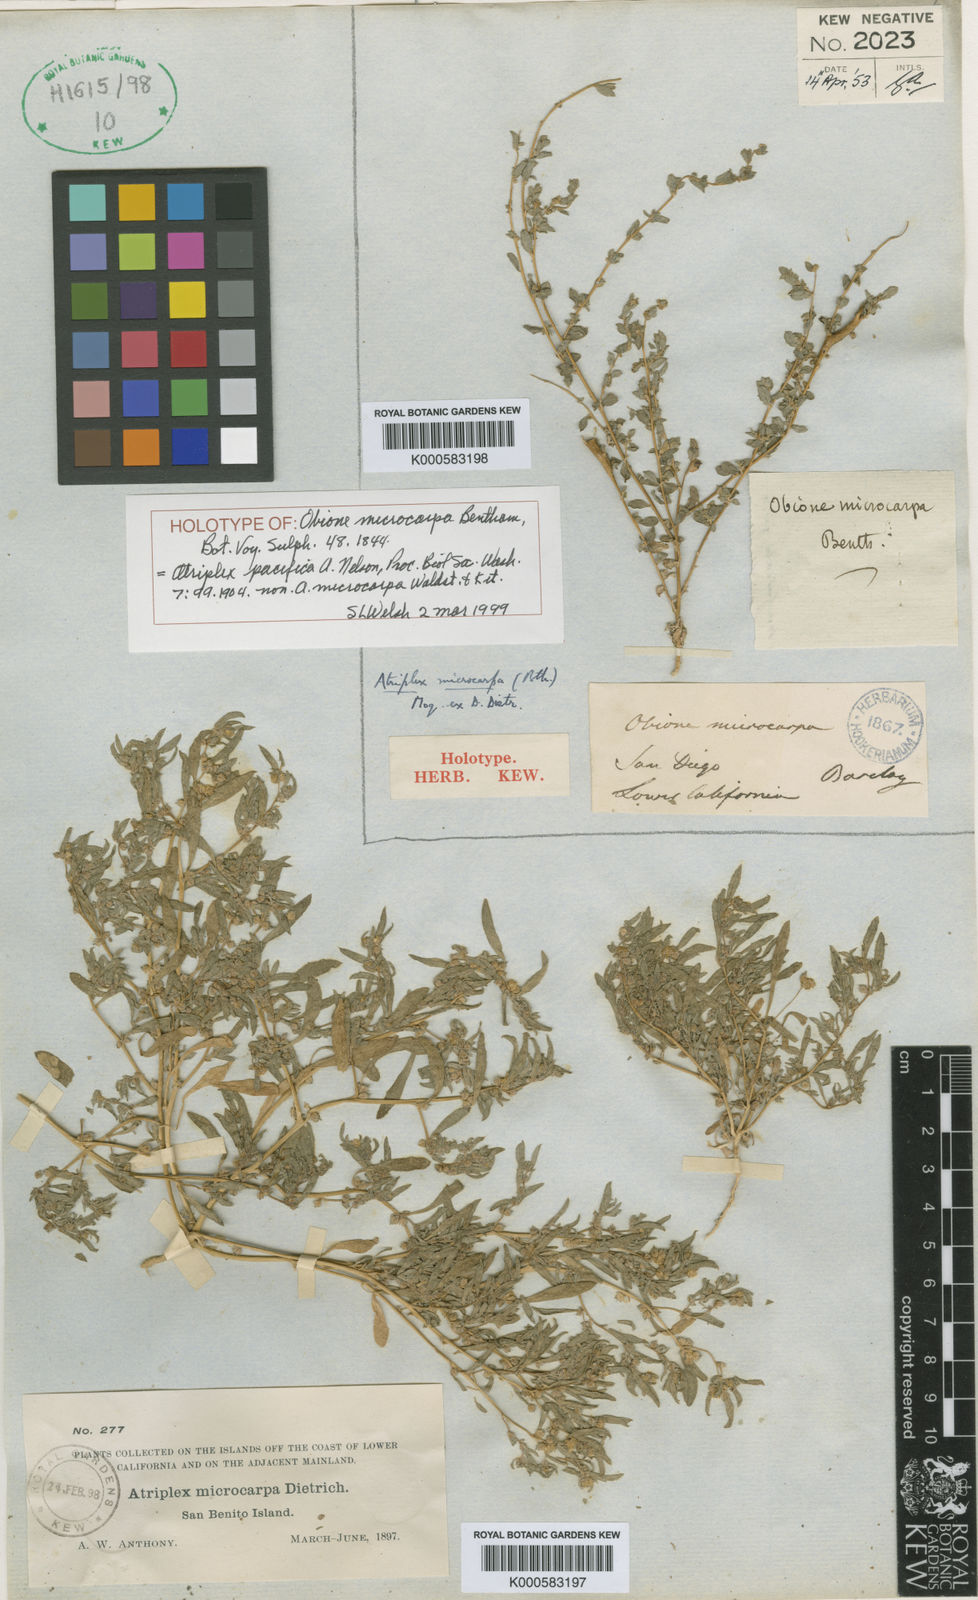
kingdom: Plantae
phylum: Tracheophyta
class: Magnoliopsida
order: Caryophyllales
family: Amaranthaceae
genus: Atriplex
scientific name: Atriplex pacifica
